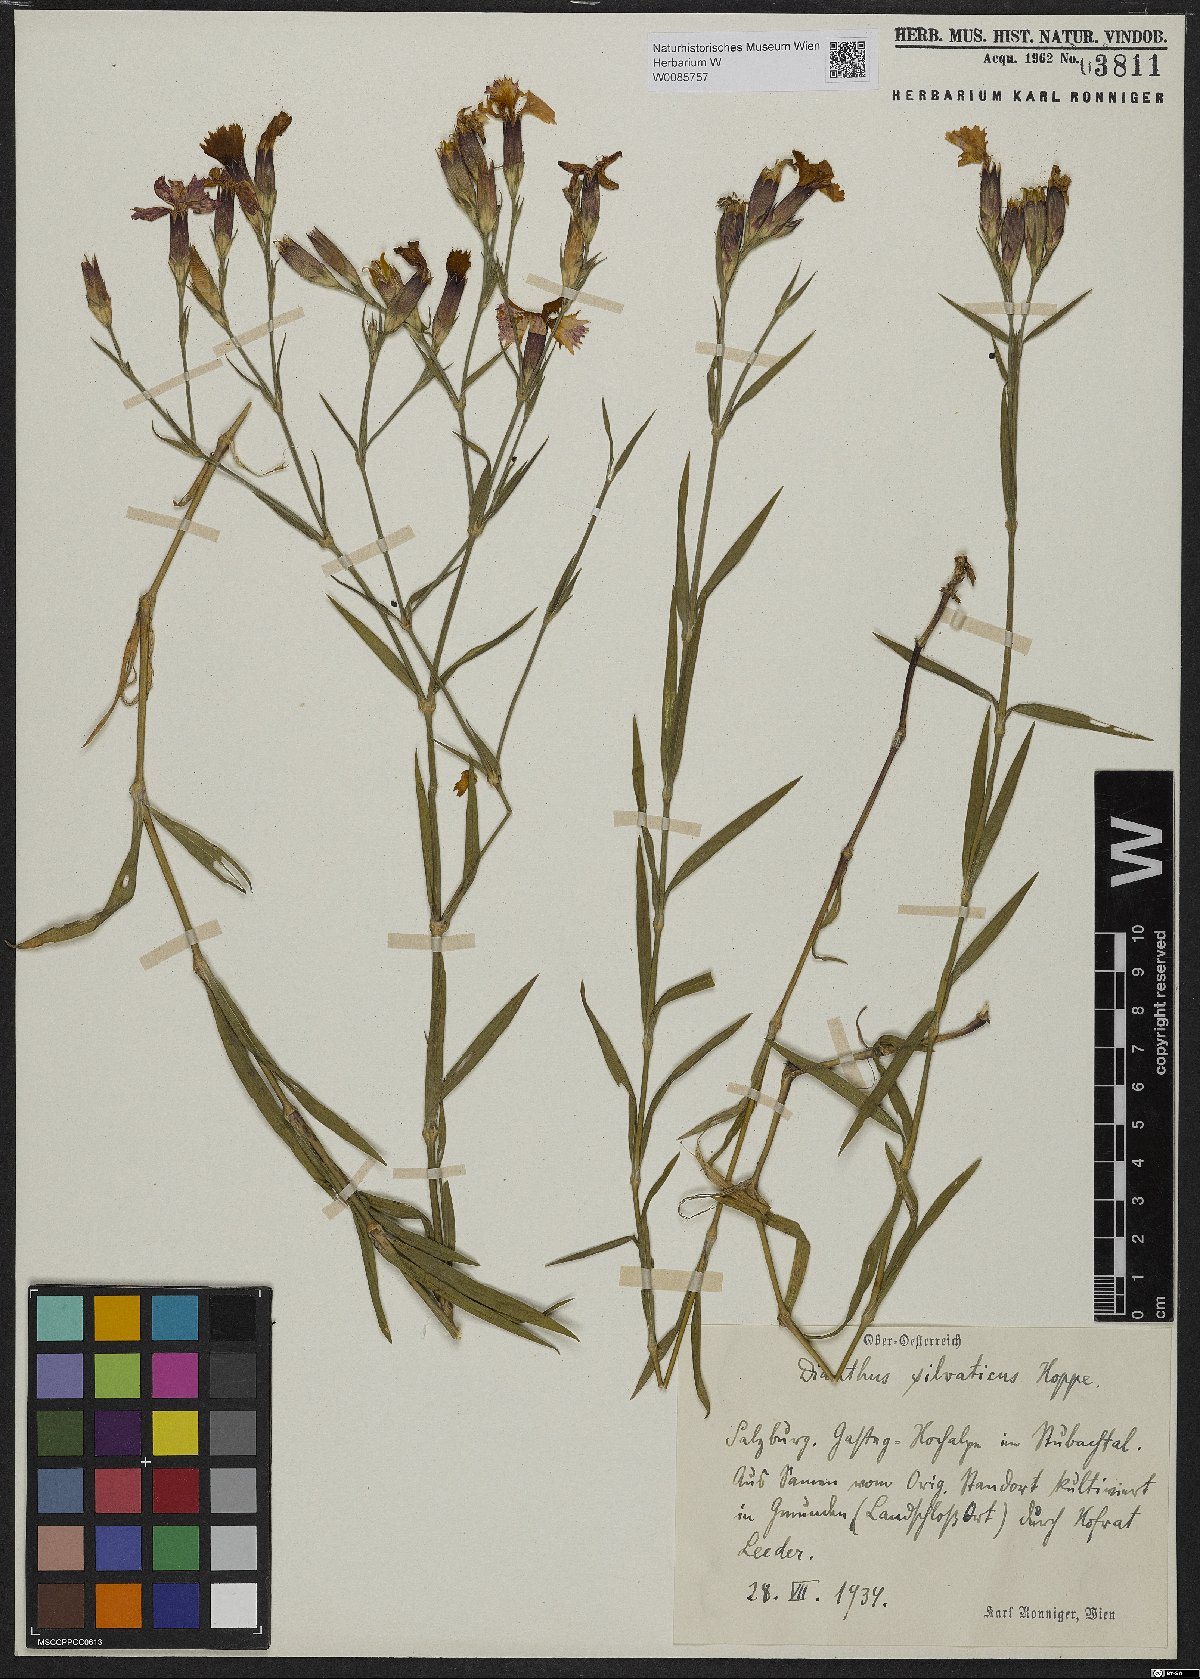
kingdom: Plantae
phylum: Tracheophyta
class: Magnoliopsida
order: Caryophyllales
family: Caryophyllaceae
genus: Dianthus
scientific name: Dianthus seguieri
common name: Ragged pink
